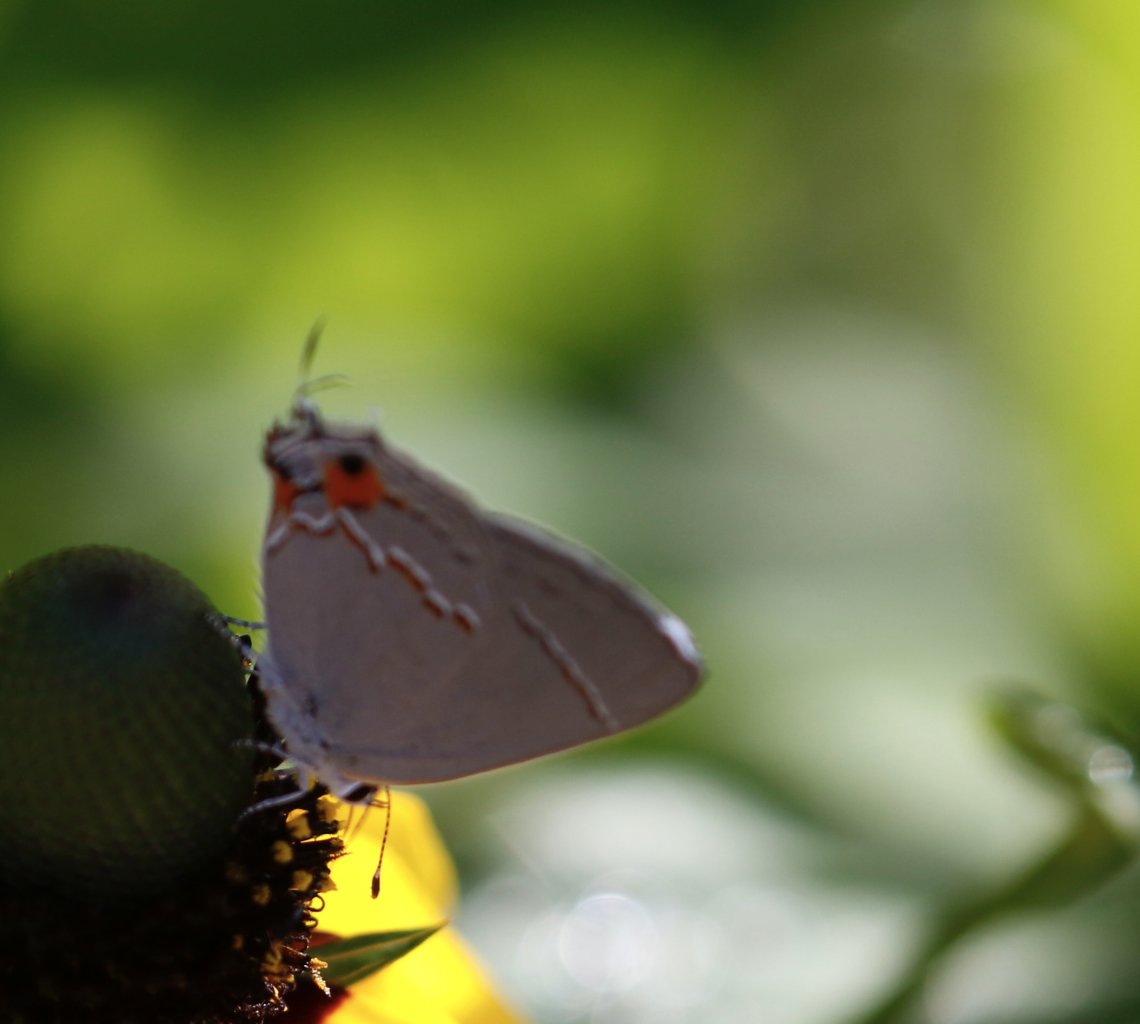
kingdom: Animalia
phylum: Arthropoda
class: Insecta
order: Lepidoptera
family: Lycaenidae
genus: Strymon
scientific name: Strymon melinus
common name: Gray Hairstreak
